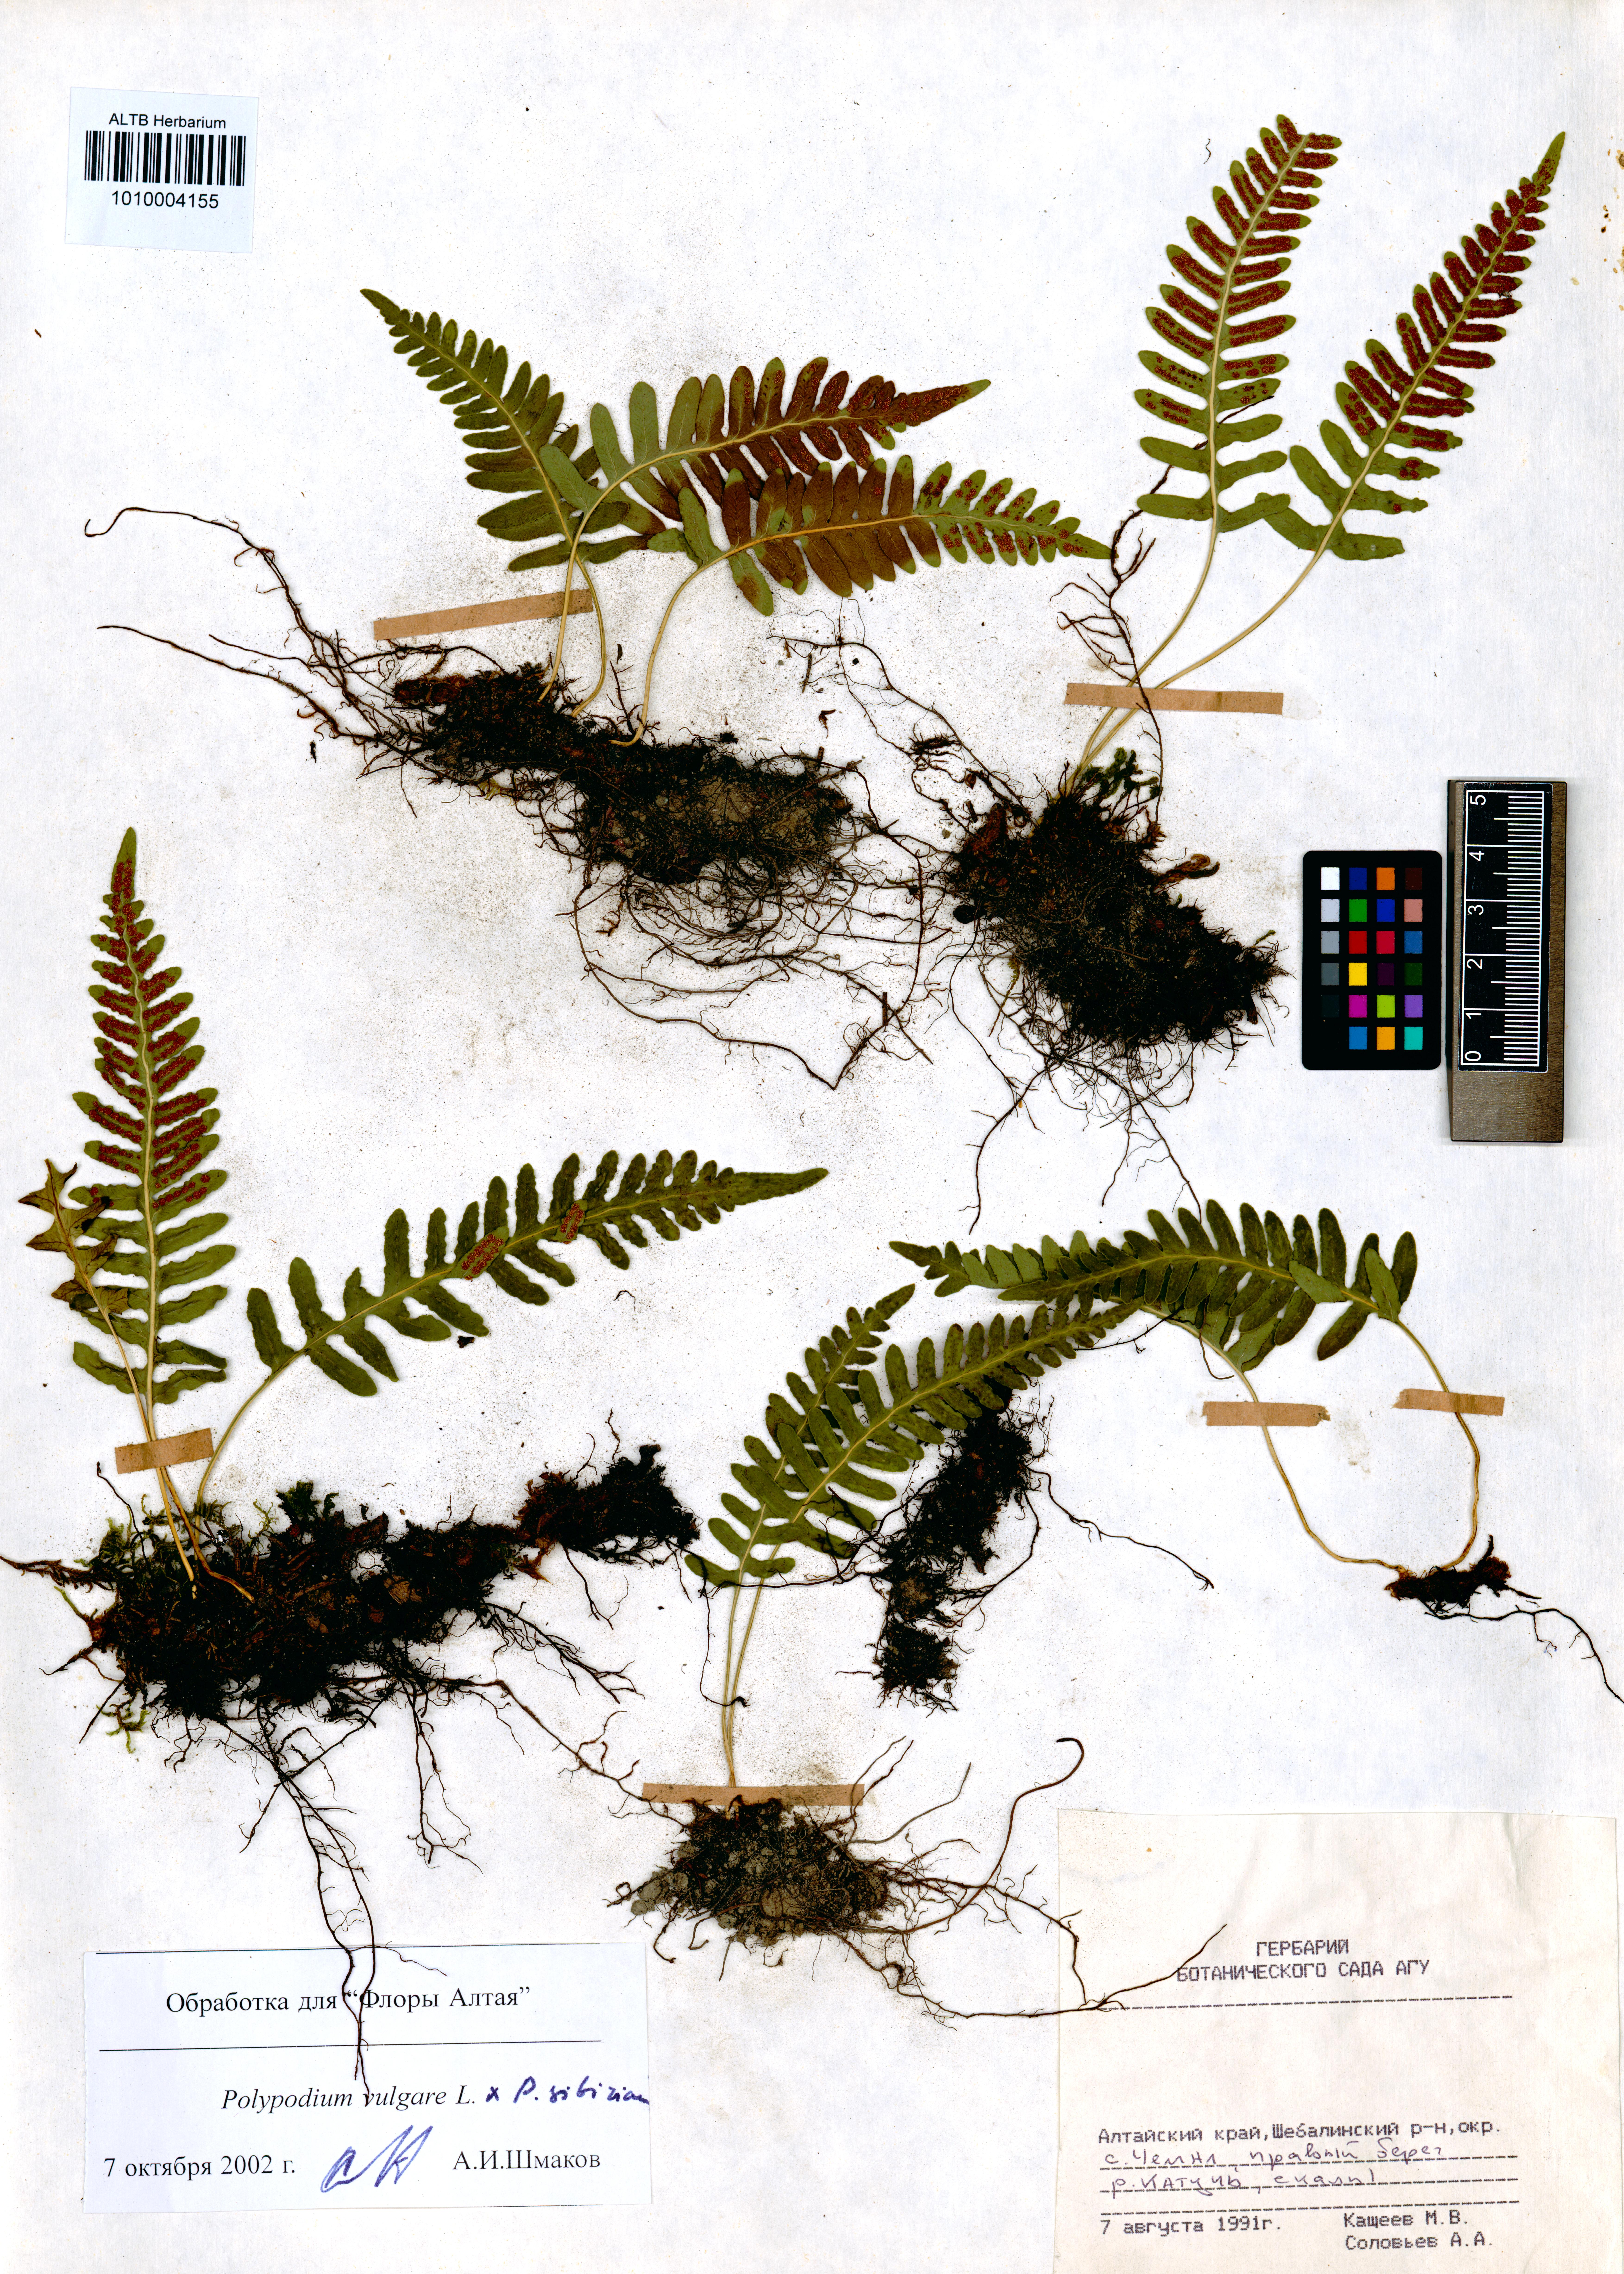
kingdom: Plantae
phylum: Tracheophyta
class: Polypodiopsida
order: Polypodiales
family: Polypodiaceae
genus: Polypodium
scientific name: Polypodium vulgare
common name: Common polypody
